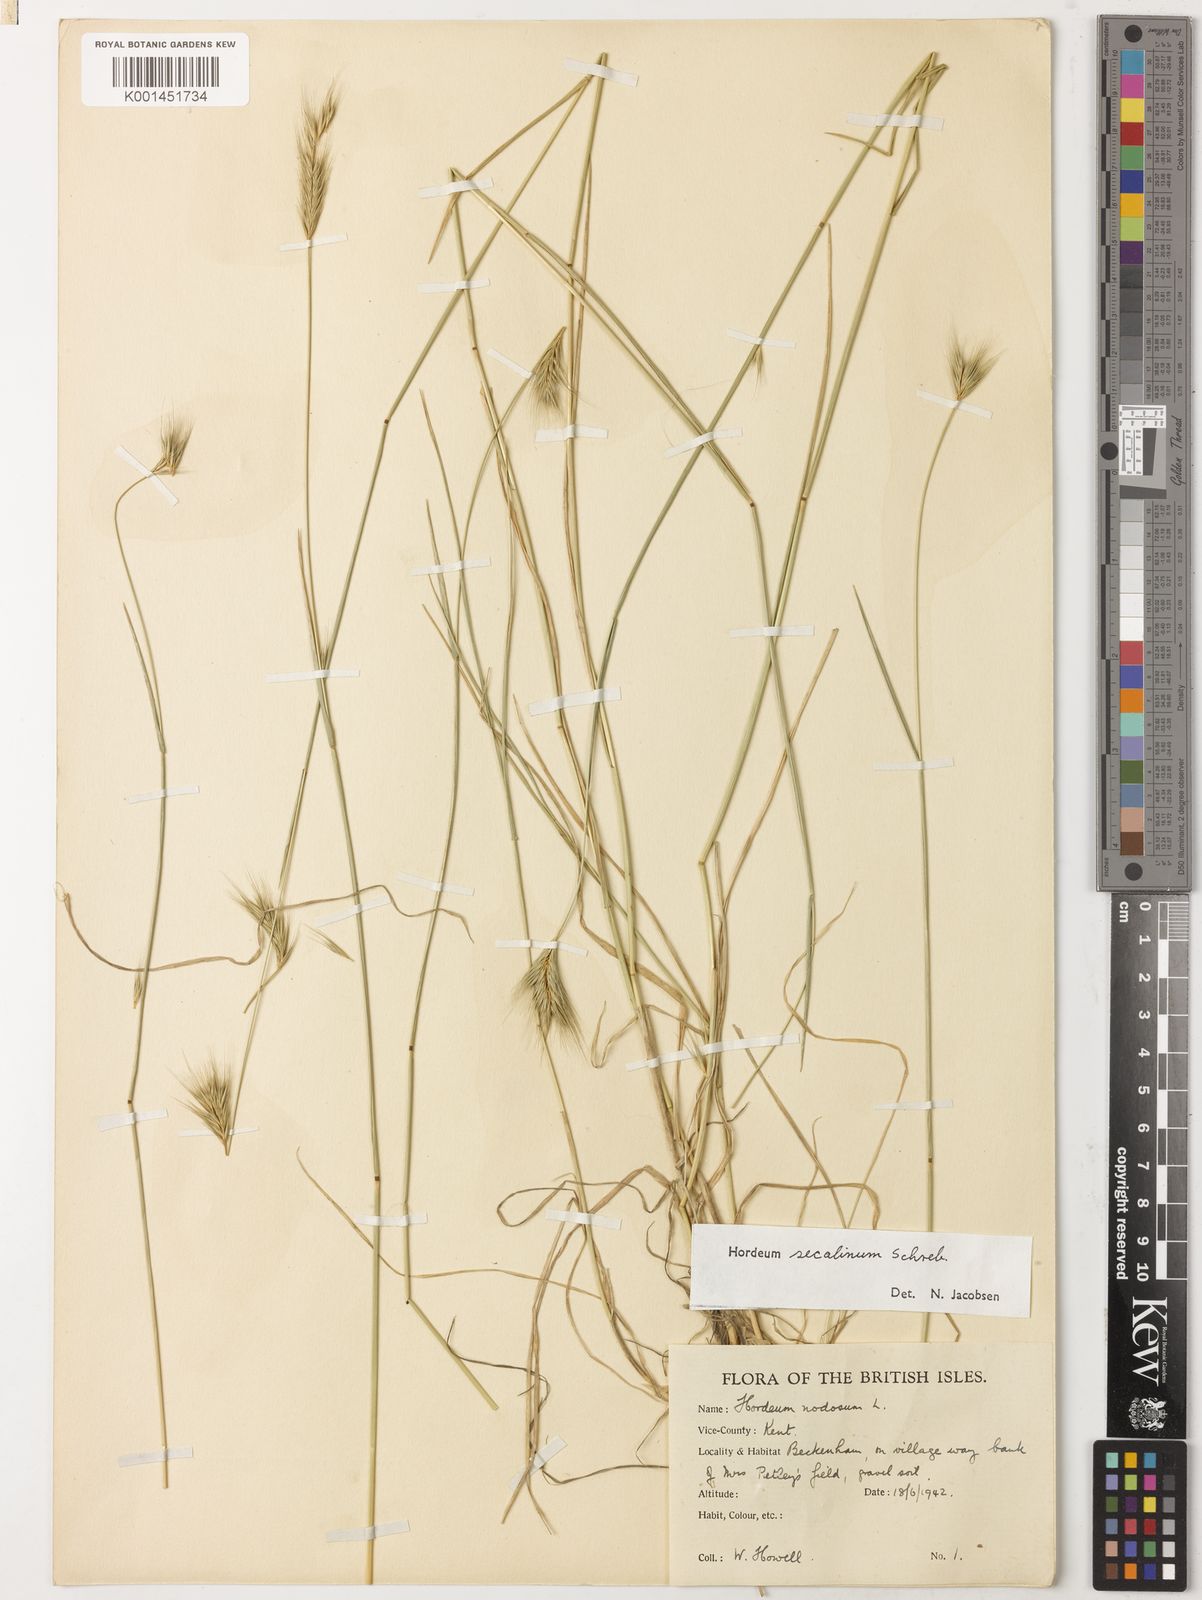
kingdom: Plantae
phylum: Tracheophyta
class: Liliopsida
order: Poales
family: Poaceae
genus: Hordeum
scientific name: Hordeum secalinum
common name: Meadow barley
